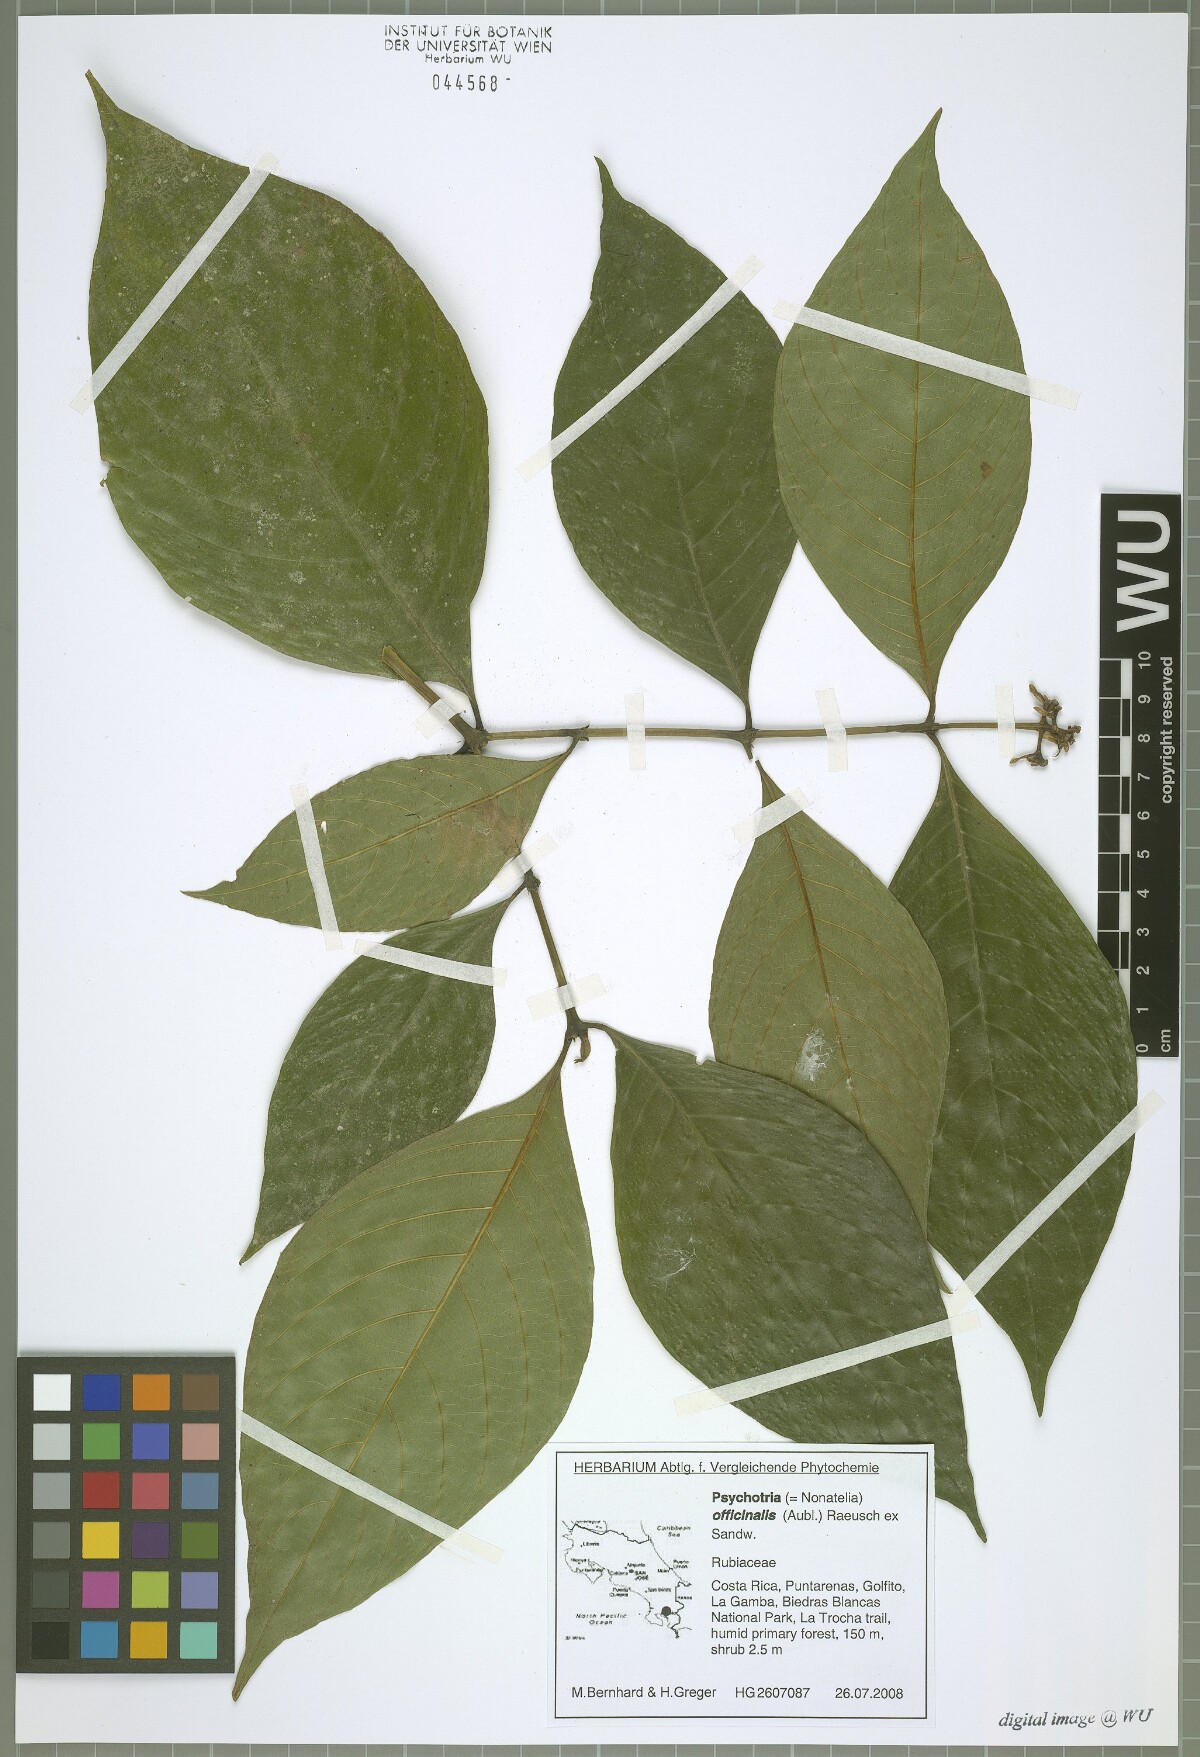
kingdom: Plantae
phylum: Tracheophyta
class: Magnoliopsida
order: Gentianales
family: Rubiaceae
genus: Palicourea
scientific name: Palicourea winkleri
